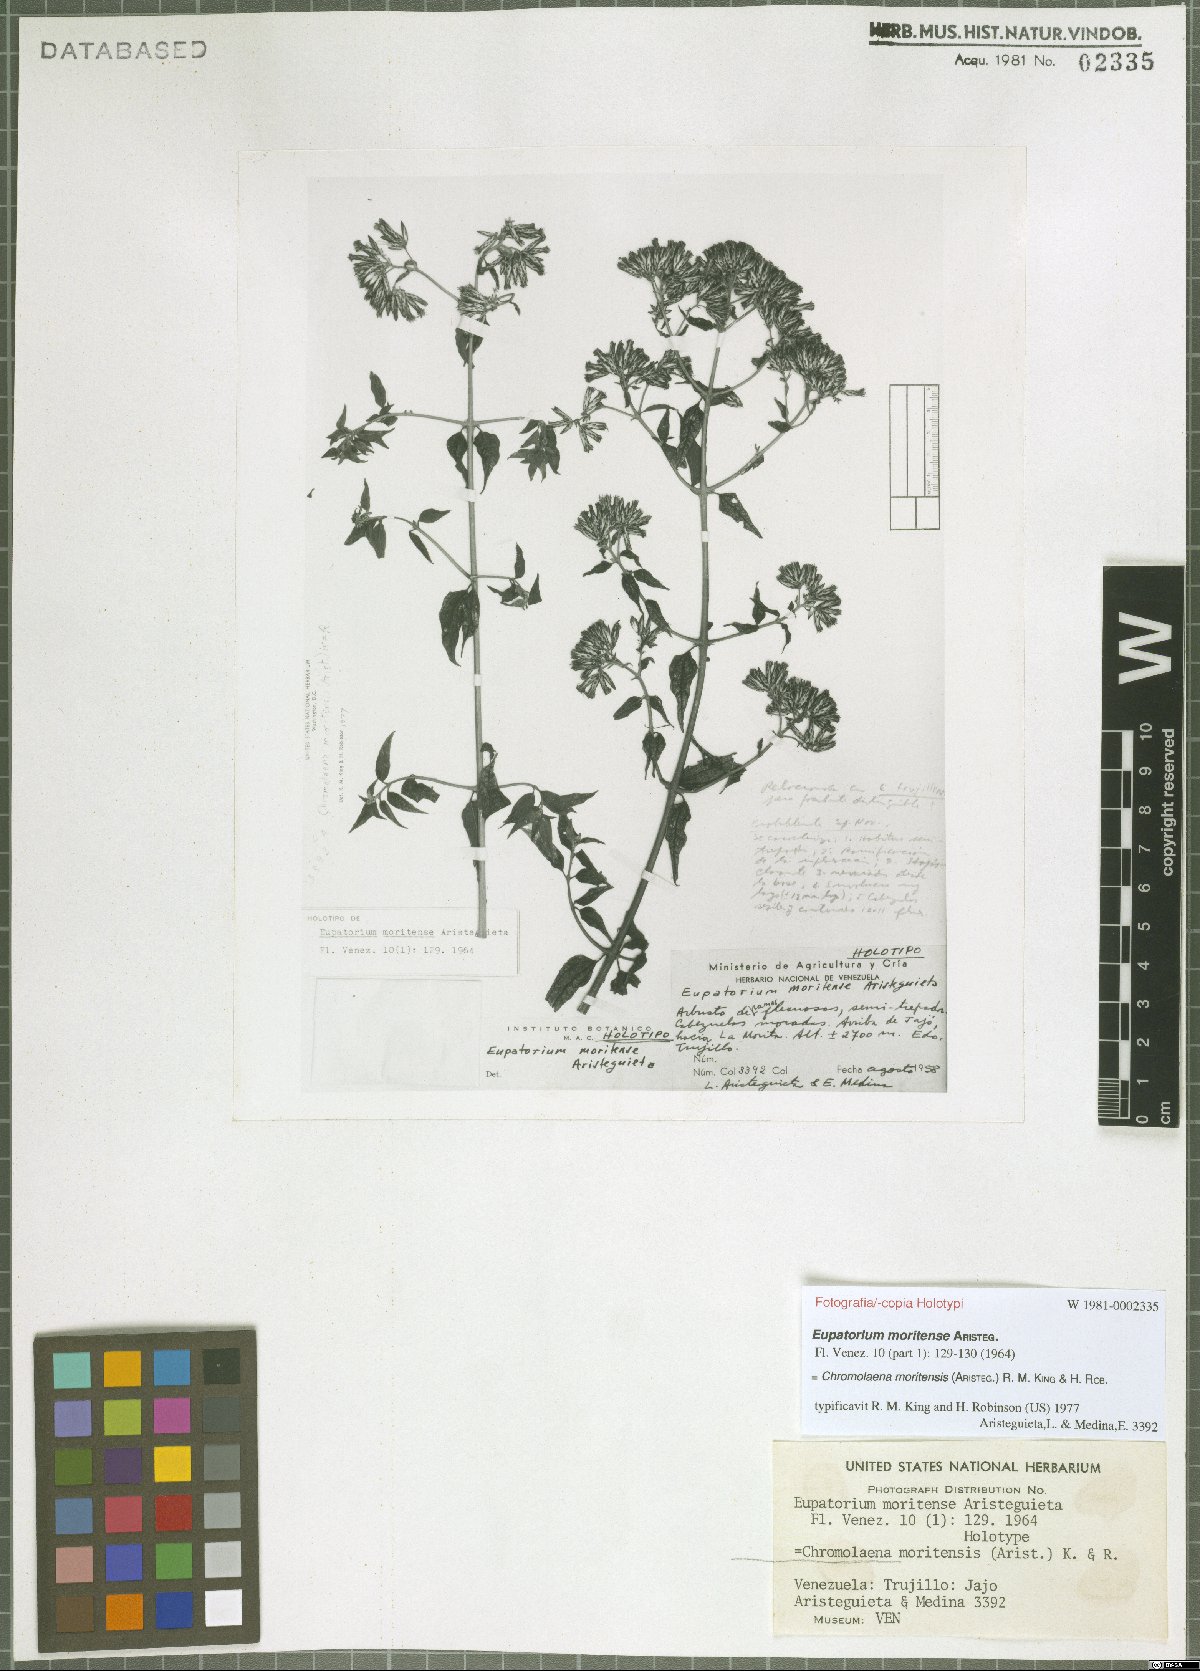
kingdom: Plantae
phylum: Tracheophyta
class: Magnoliopsida
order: Asterales
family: Asteraceae
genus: Chromolaena
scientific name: Chromolaena moritensis
